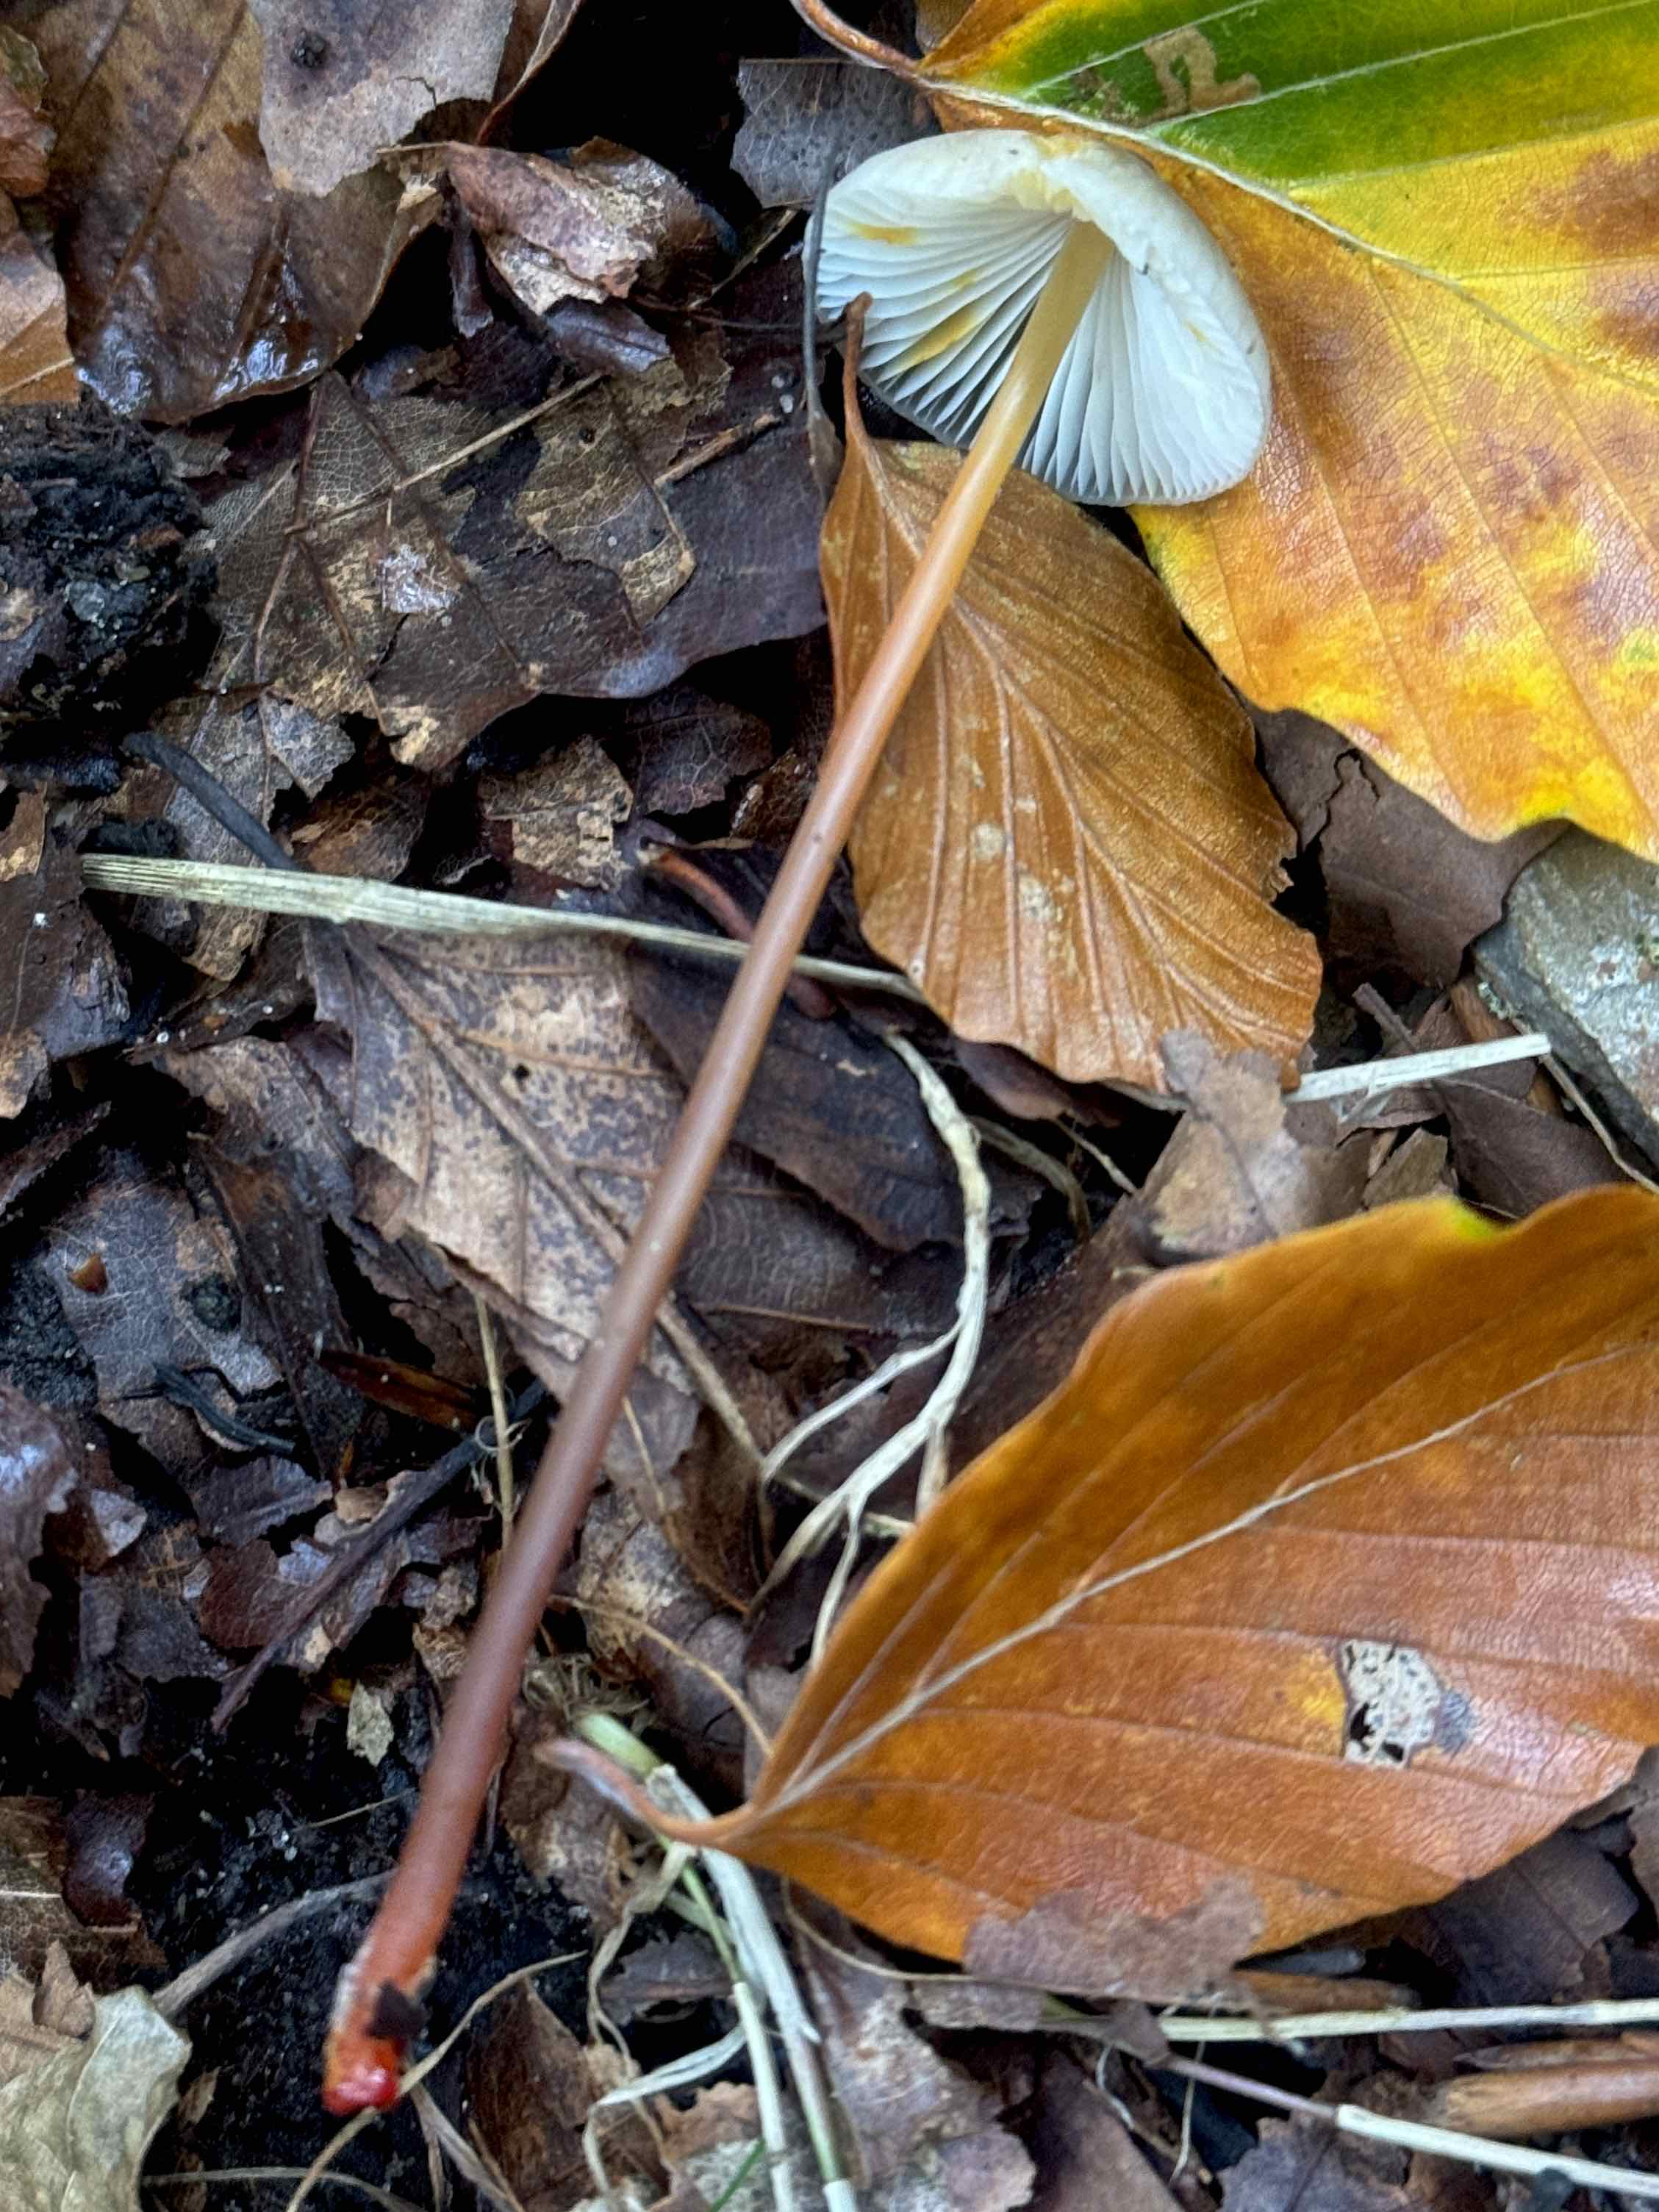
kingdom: Fungi
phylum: Basidiomycota
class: Agaricomycetes
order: Agaricales
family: Mycenaceae
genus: Mycena
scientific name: Mycena crocata
